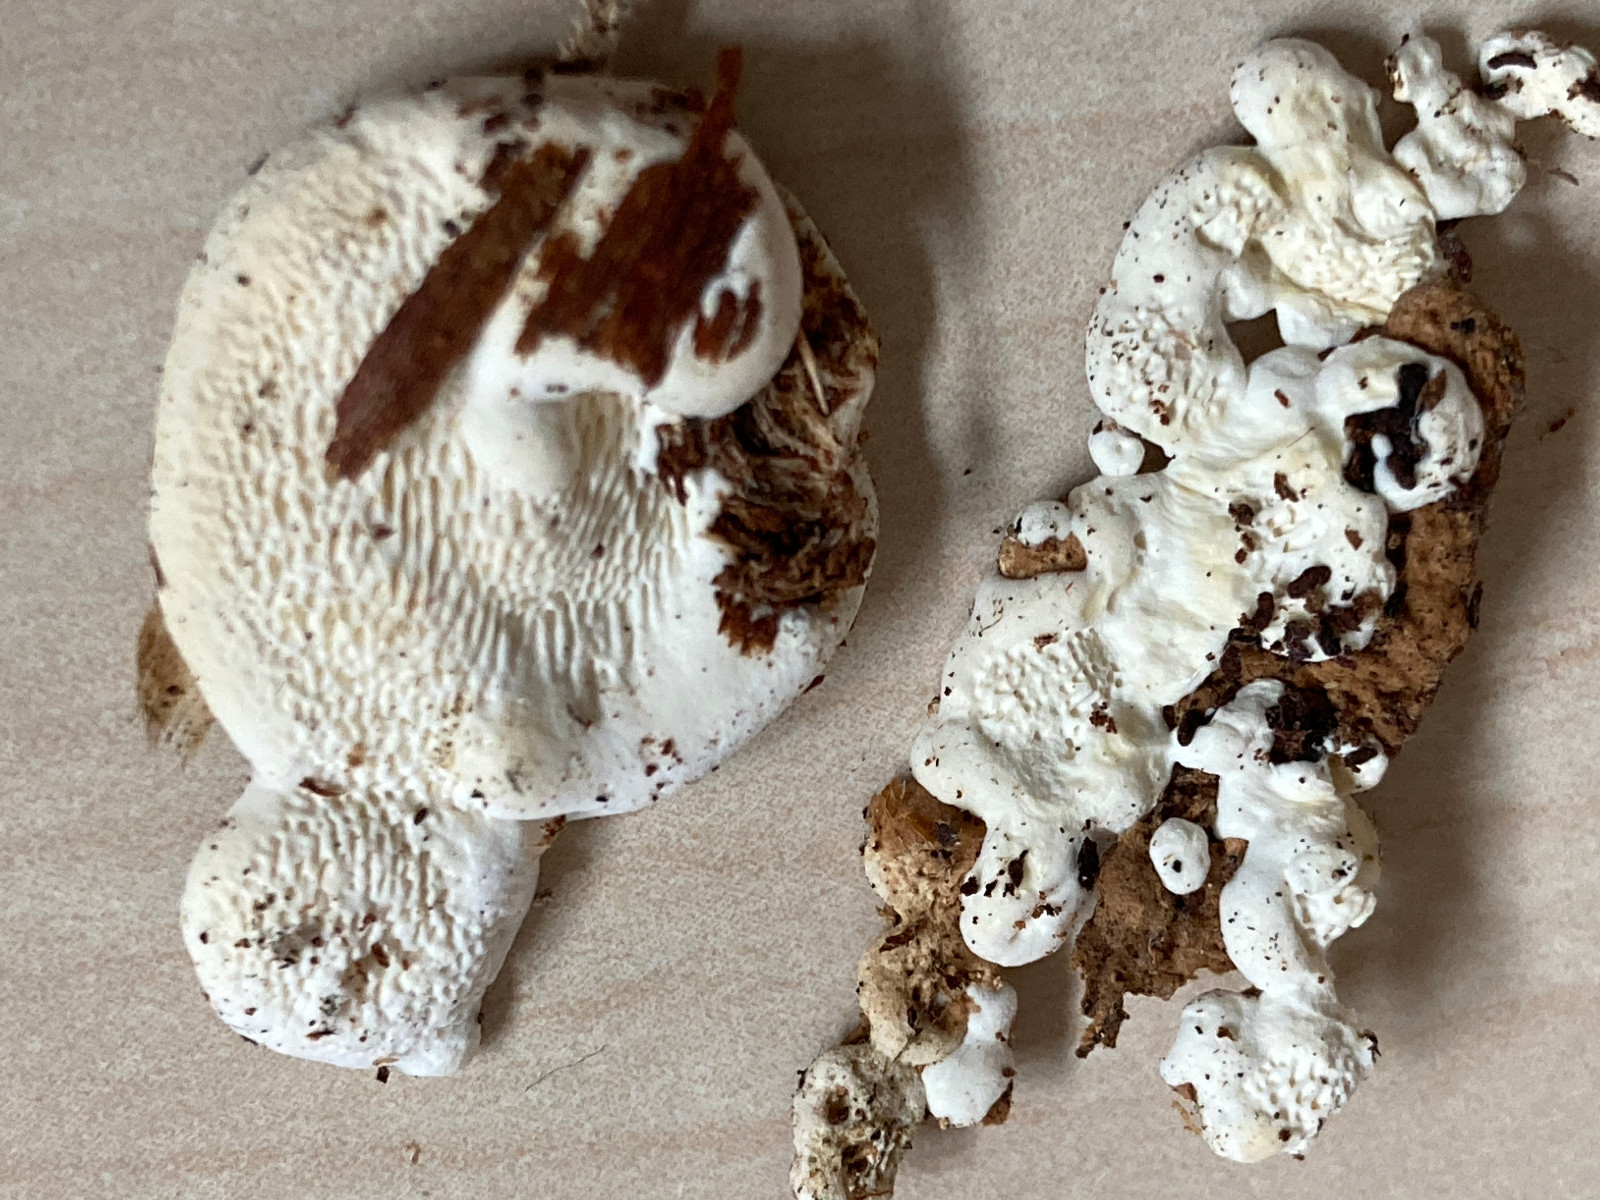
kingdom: Fungi
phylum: Basidiomycota
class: Agaricomycetes
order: Polyporales
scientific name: Polyporales
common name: poresvampordenen
